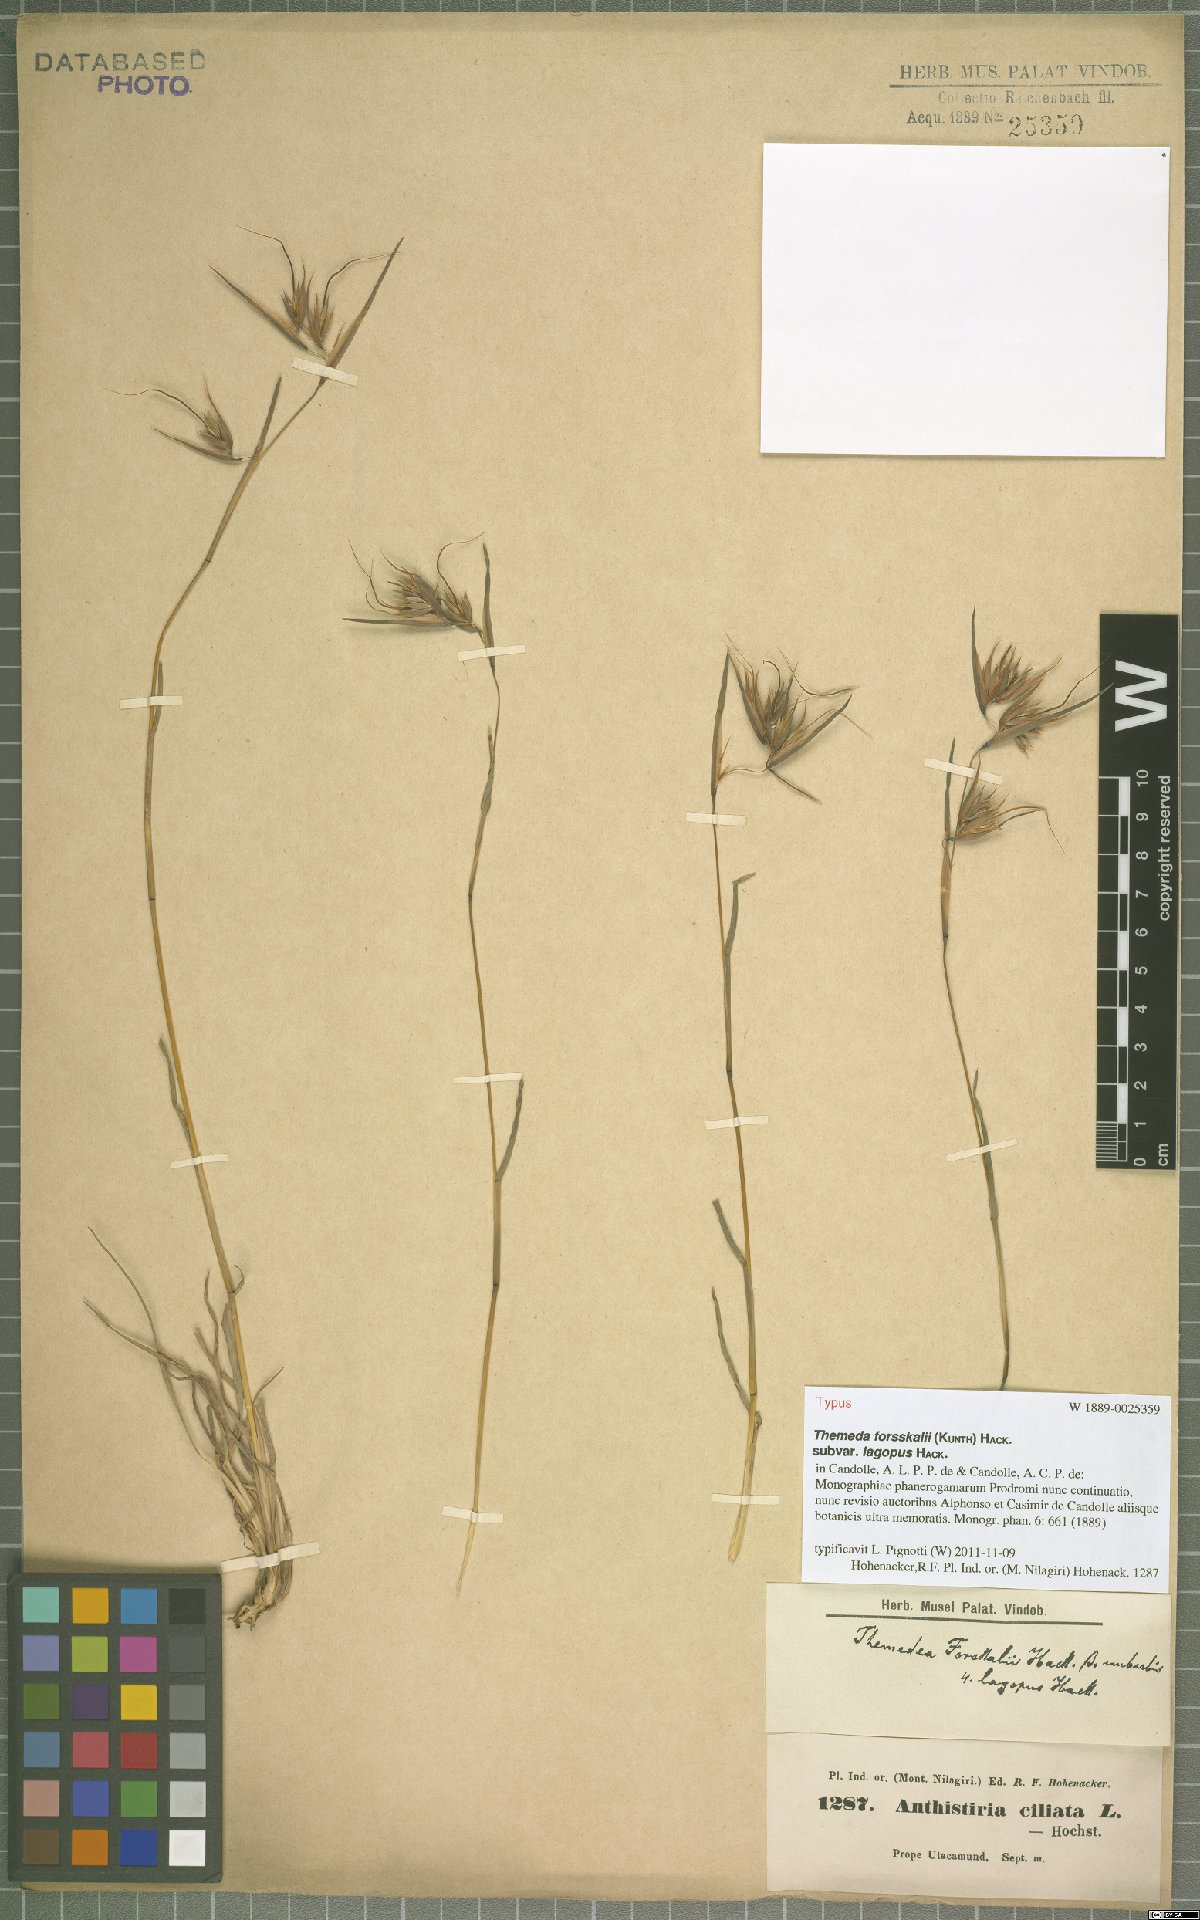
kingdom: Plantae
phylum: Tracheophyta
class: Liliopsida
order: Poales
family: Poaceae
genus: Themeda
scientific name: Themeda triandra
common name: Kangaroo grass
